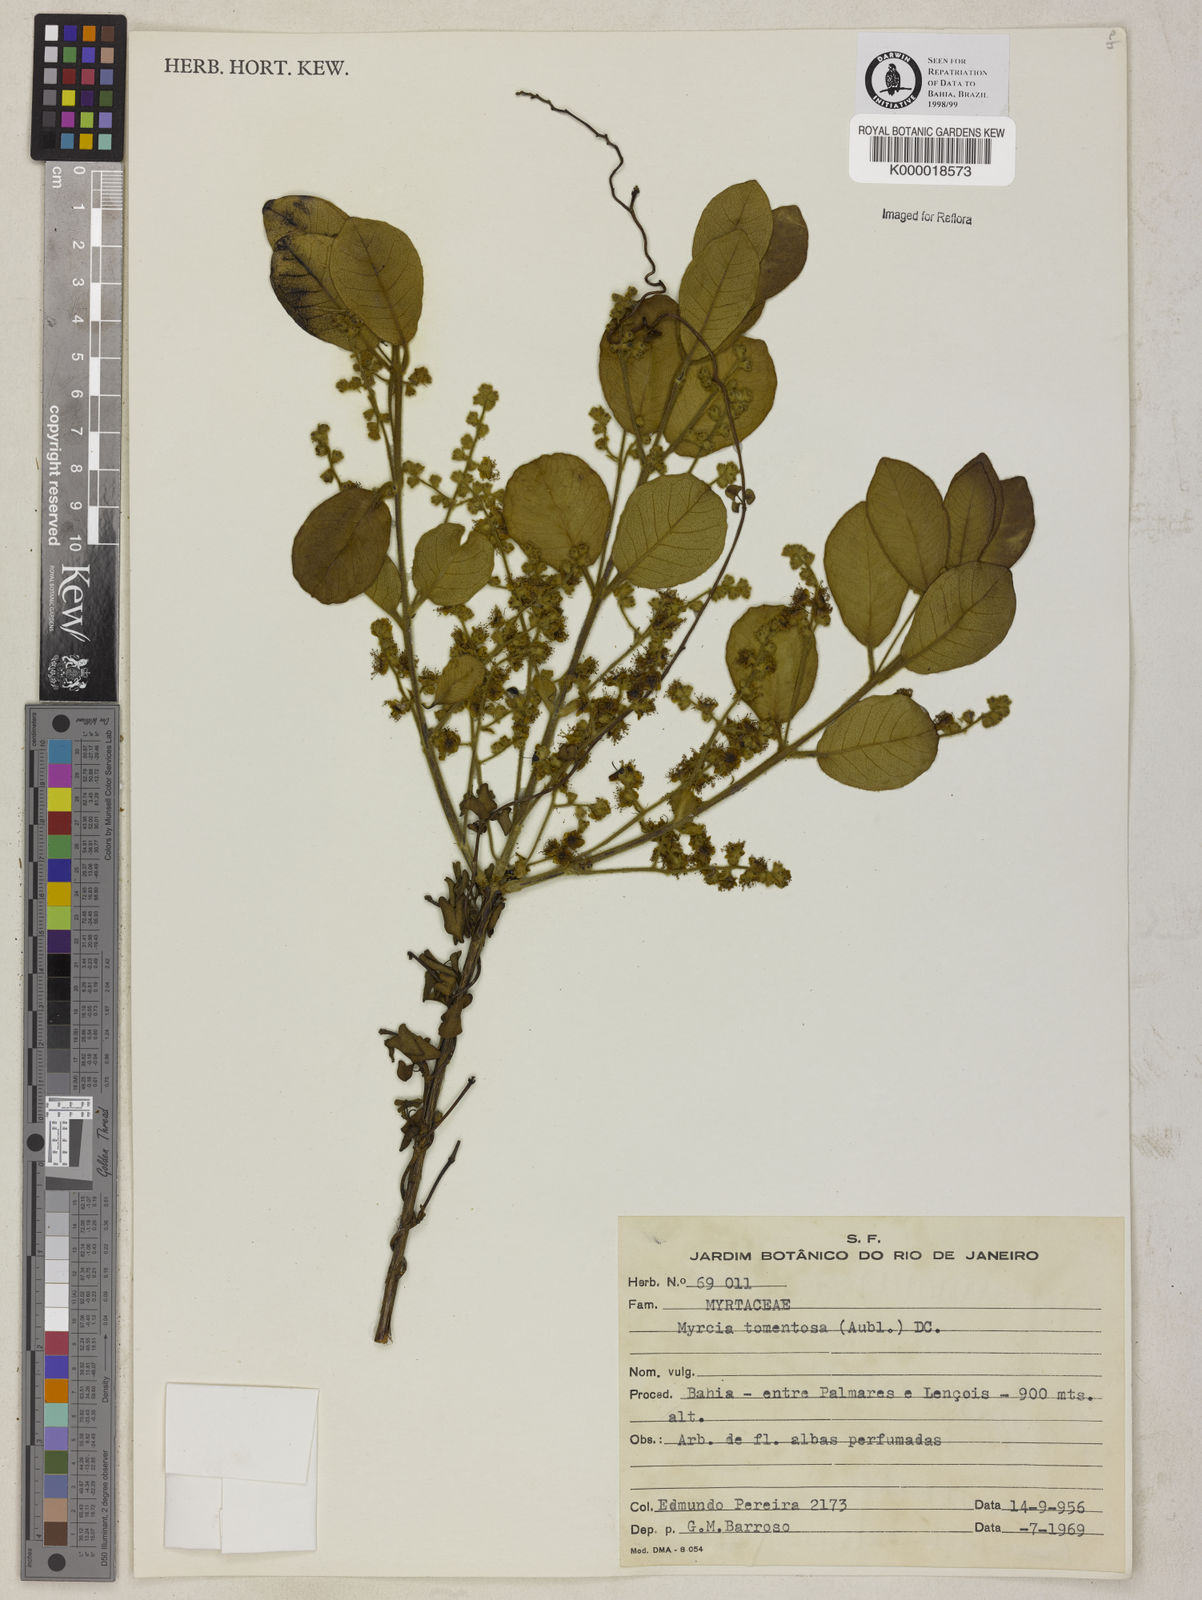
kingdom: Plantae
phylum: Tracheophyta
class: Magnoliopsida
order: Myrtales
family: Myrtaceae
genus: Myrcia
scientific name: Myrcia tomentosa
